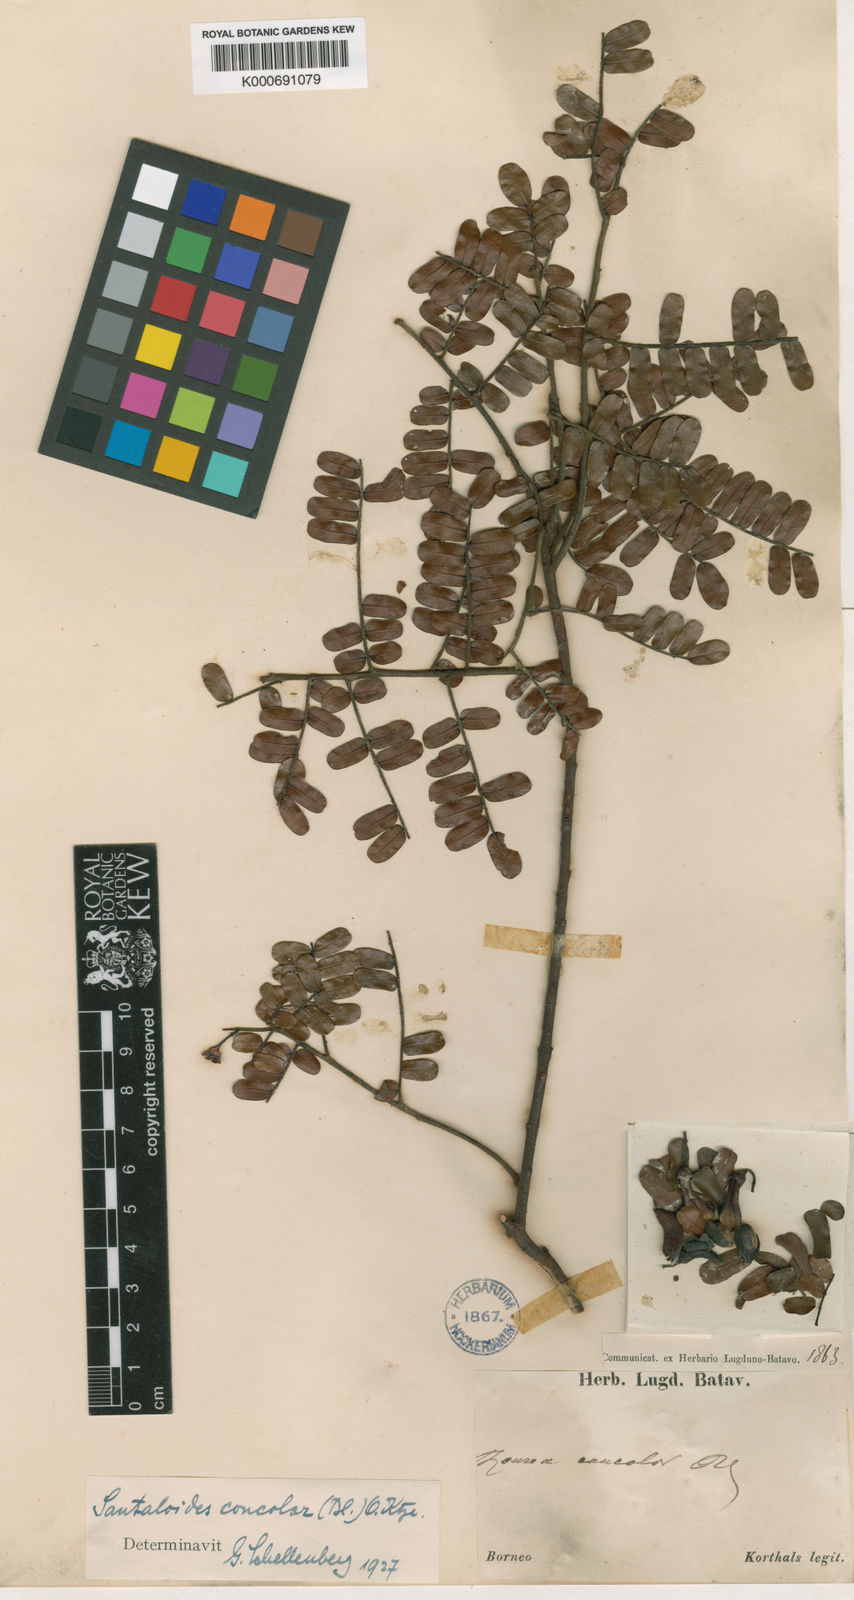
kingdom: Plantae
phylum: Tracheophyta
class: Magnoliopsida
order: Oxalidales
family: Connaraceae
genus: Rourea
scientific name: Rourea mimosoides
